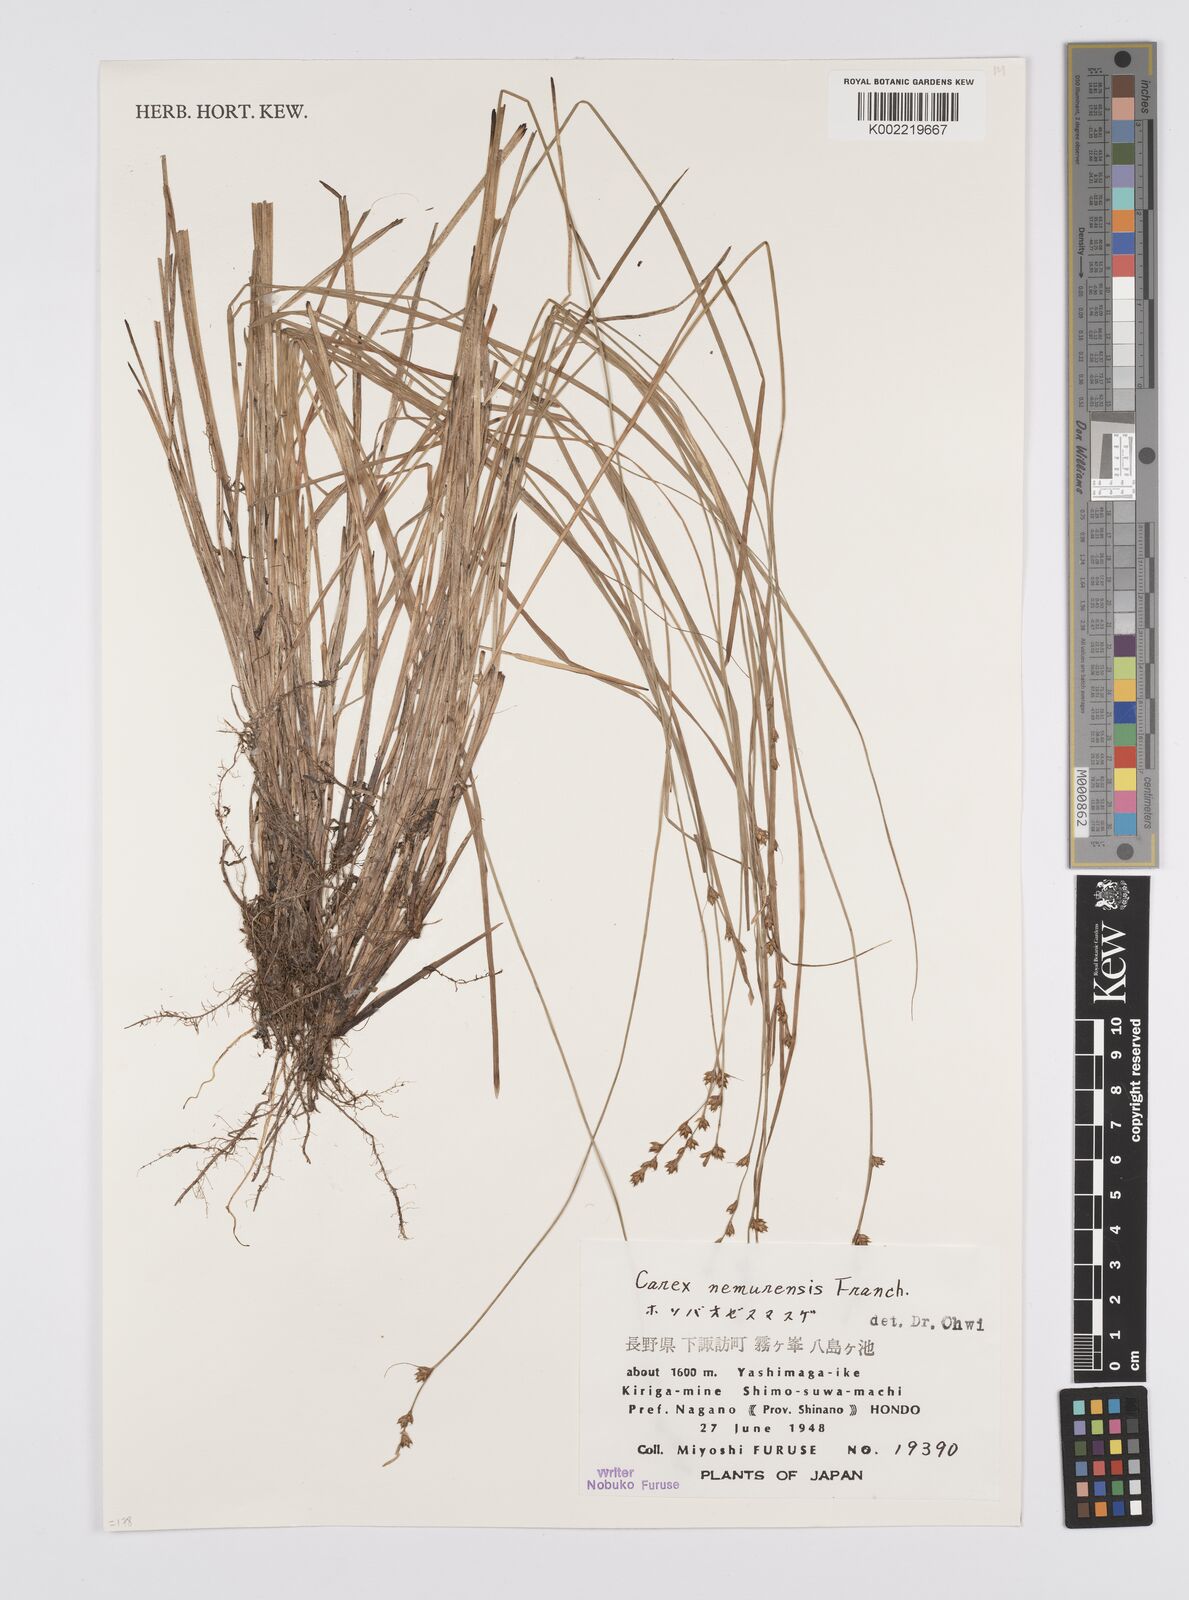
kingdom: Plantae
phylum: Tracheophyta
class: Liliopsida
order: Poales
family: Cyperaceae
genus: Carex
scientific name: Carex traiziscana
